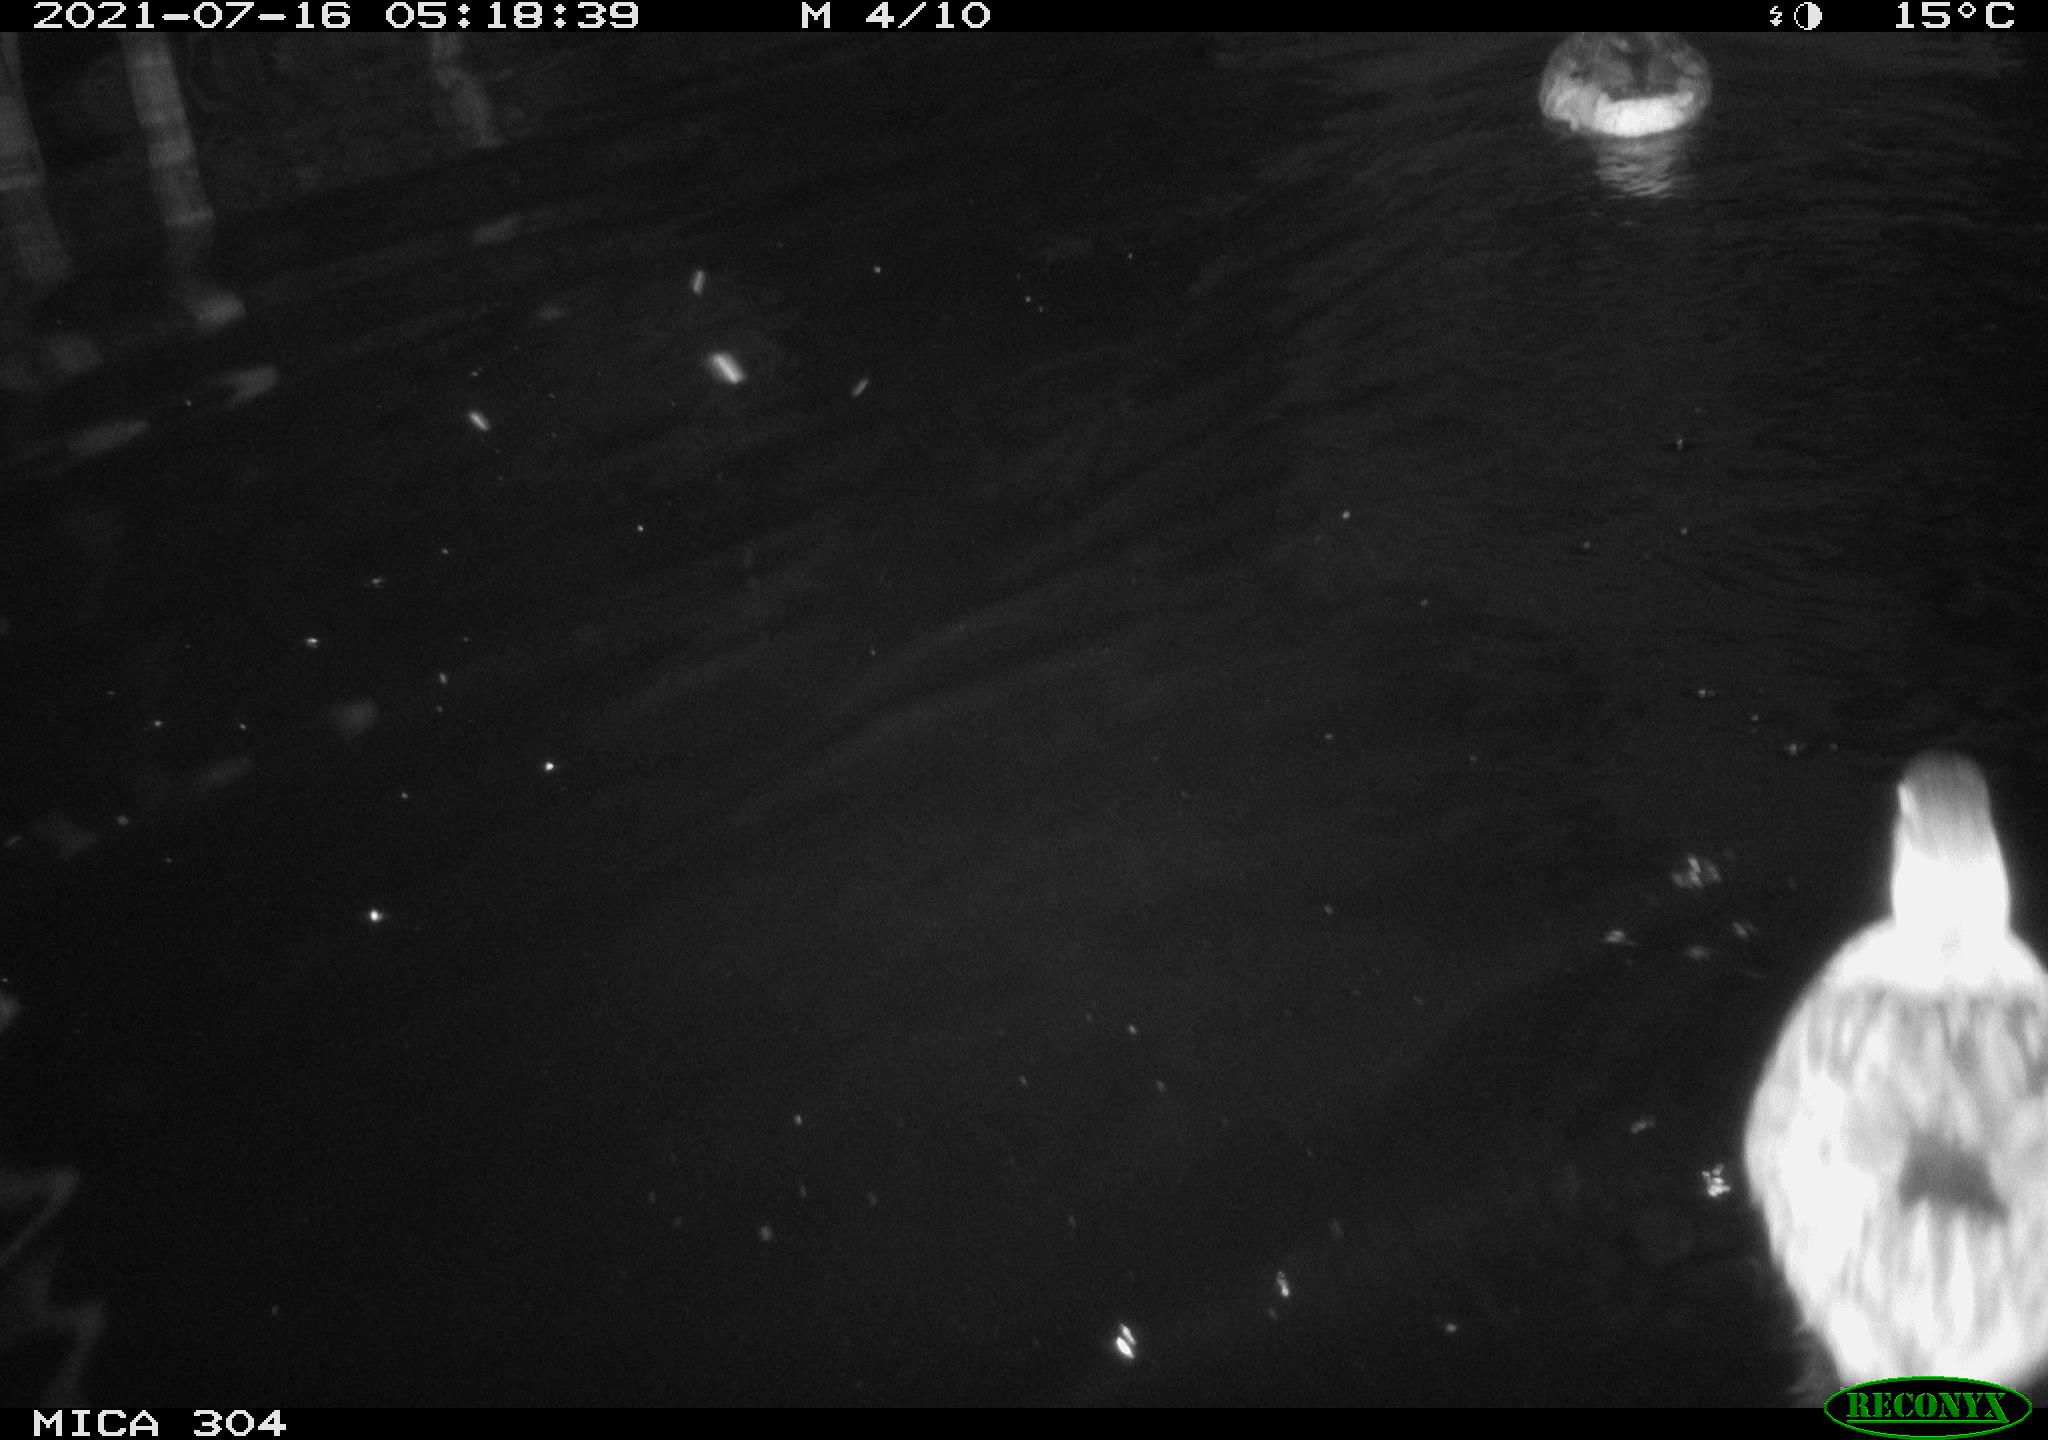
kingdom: Animalia
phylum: Chordata
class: Aves
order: Anseriformes
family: Anatidae
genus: Anas
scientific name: Anas platyrhynchos
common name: Mallard
